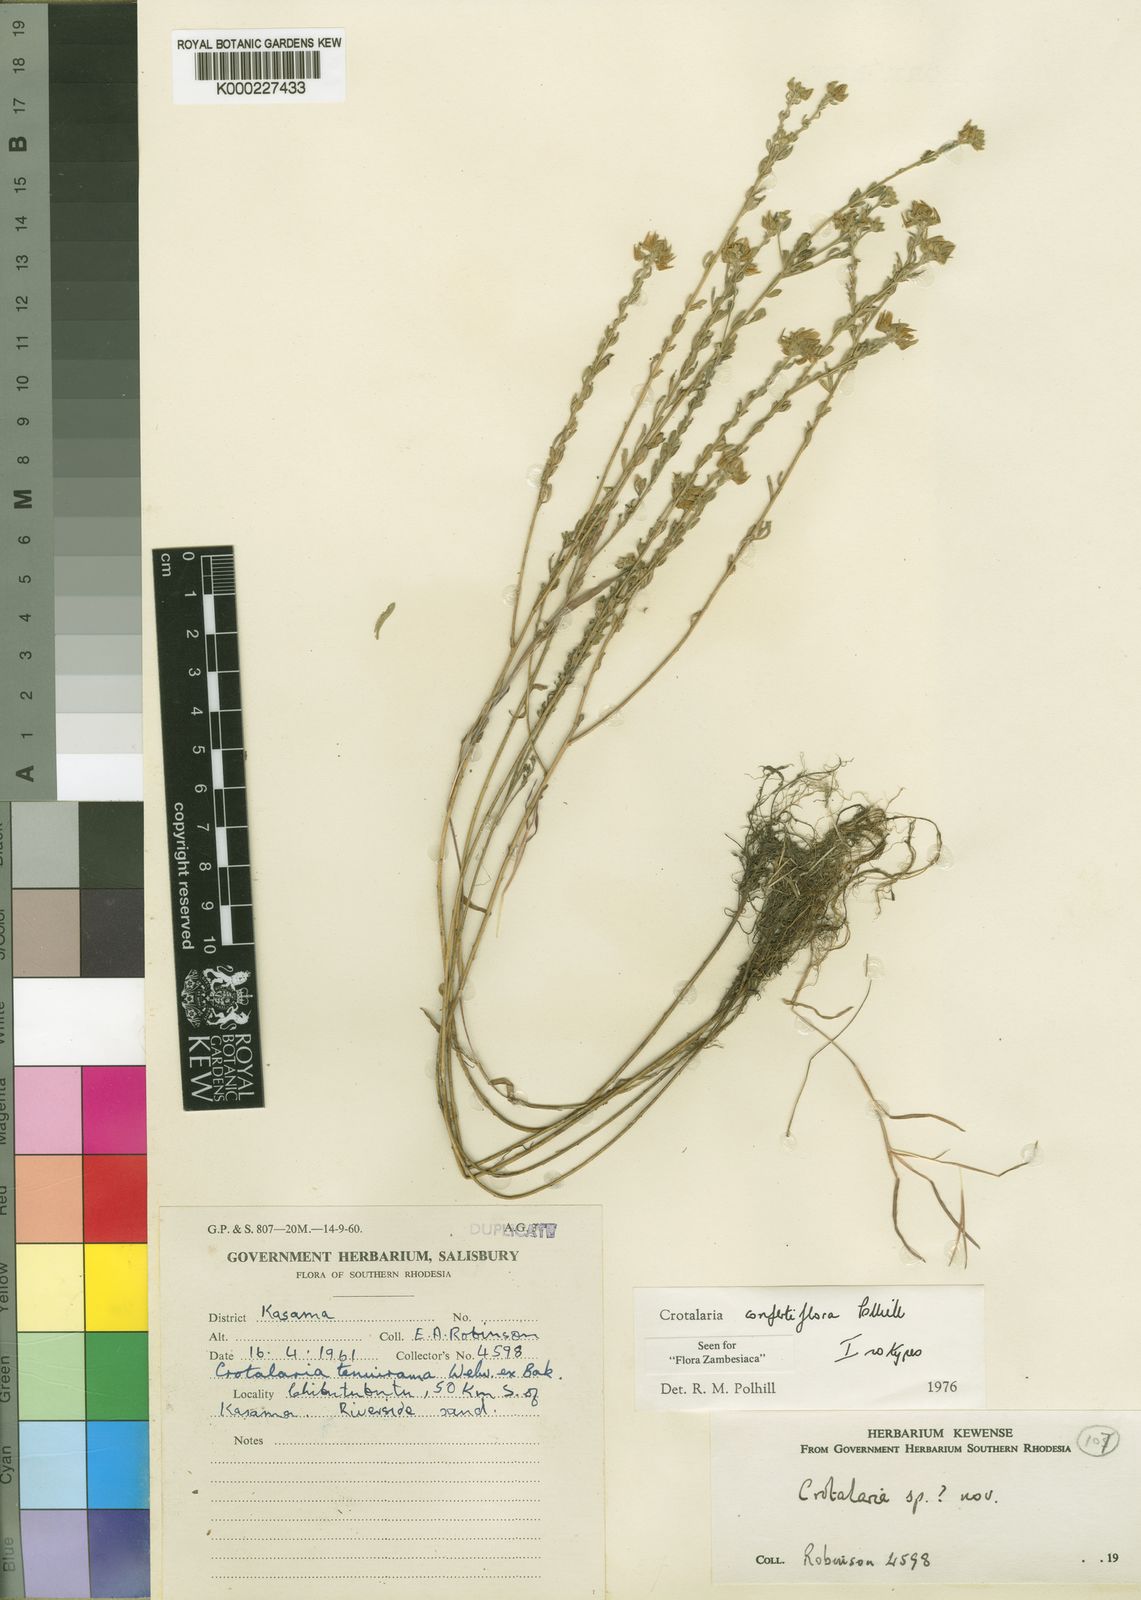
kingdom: Plantae
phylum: Tracheophyta
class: Magnoliopsida
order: Fabales
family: Fabaceae
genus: Crotalaria
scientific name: Crotalaria confertiflora
